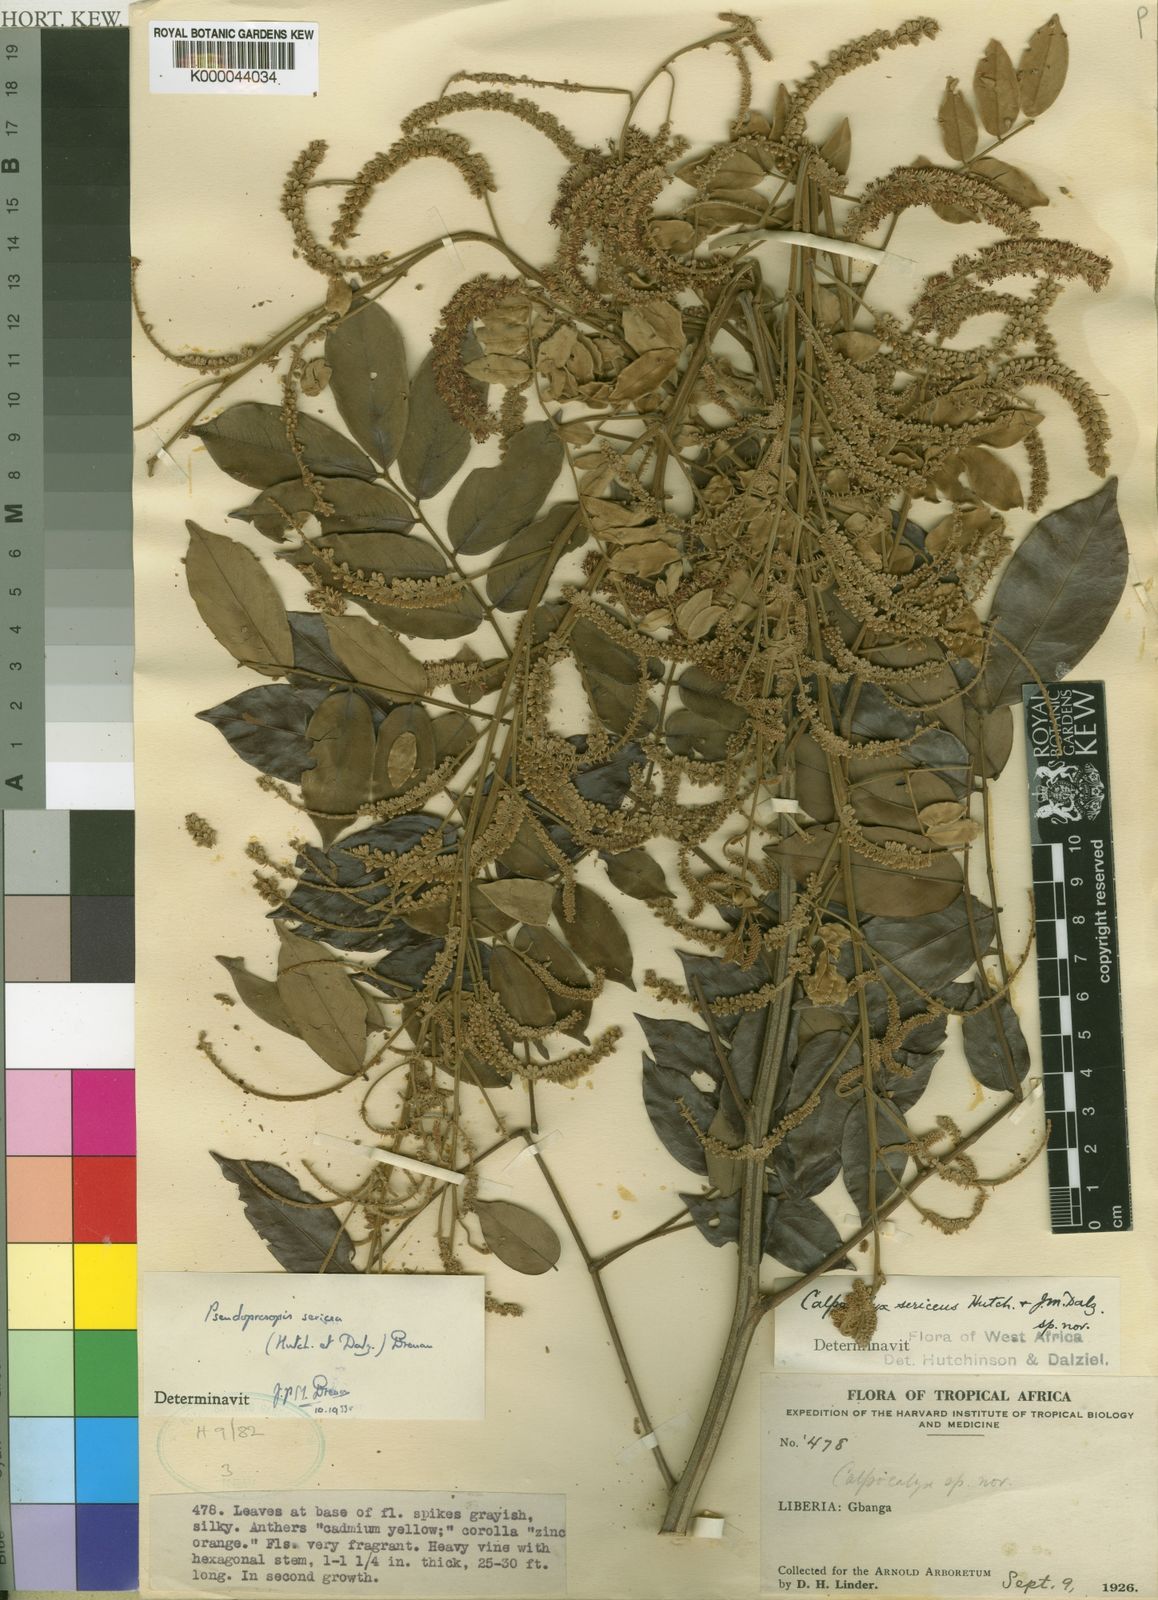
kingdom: Plantae
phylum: Tracheophyta
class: Magnoliopsida
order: Fabales
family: Fabaceae
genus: Pseudoprosopis
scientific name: Pseudoprosopis sericea
